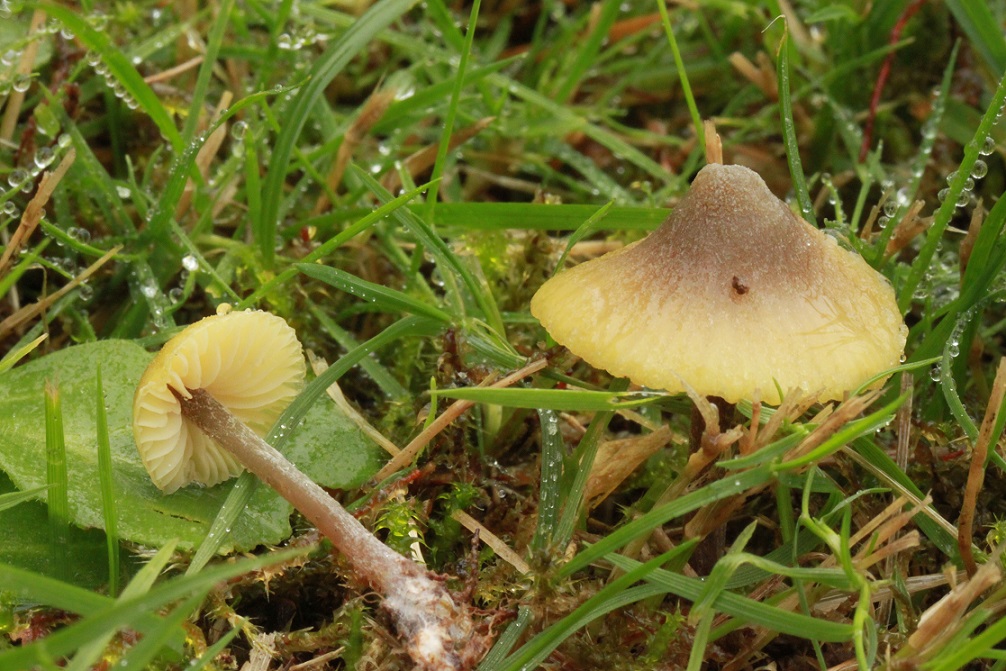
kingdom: Fungi
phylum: Basidiomycota
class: Agaricomycetes
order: Agaricales
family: Entolomataceae
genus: Entoloma
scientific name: Entoloma pleopodium
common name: duftende rødblad
